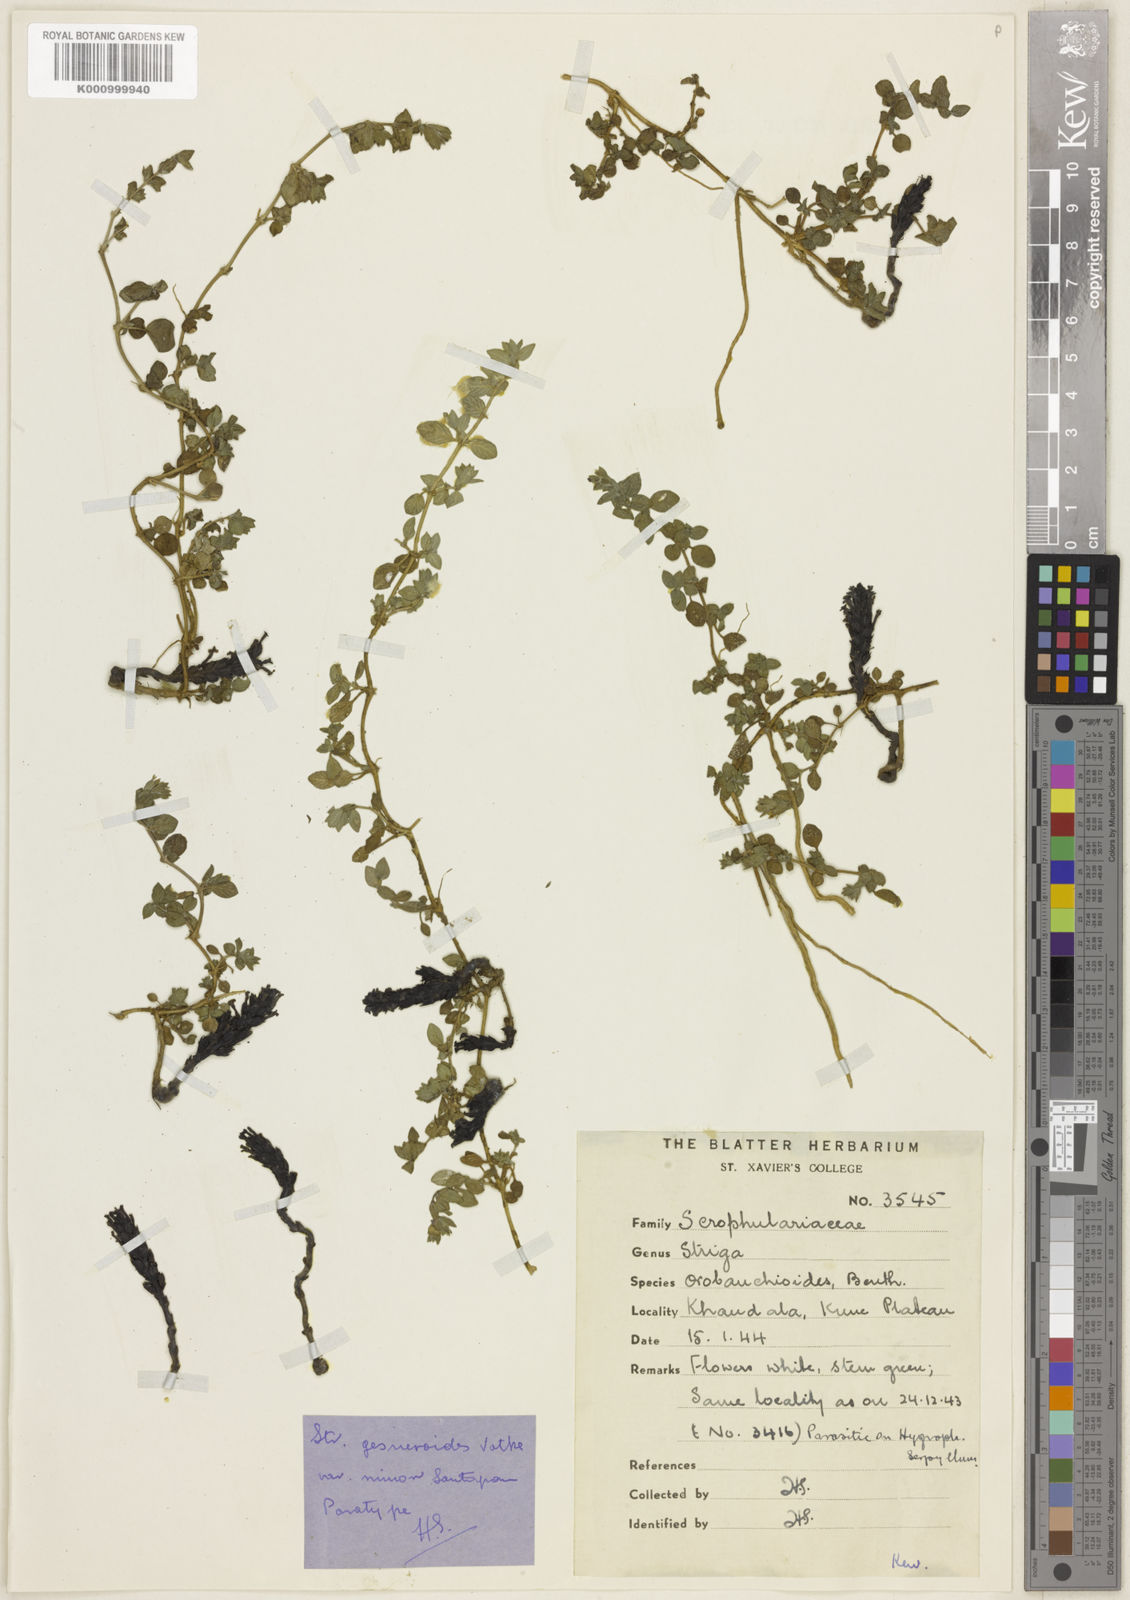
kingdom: Plantae
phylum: Tracheophyta
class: Magnoliopsida
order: Lamiales
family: Orobanchaceae
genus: Striga
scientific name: Striga
